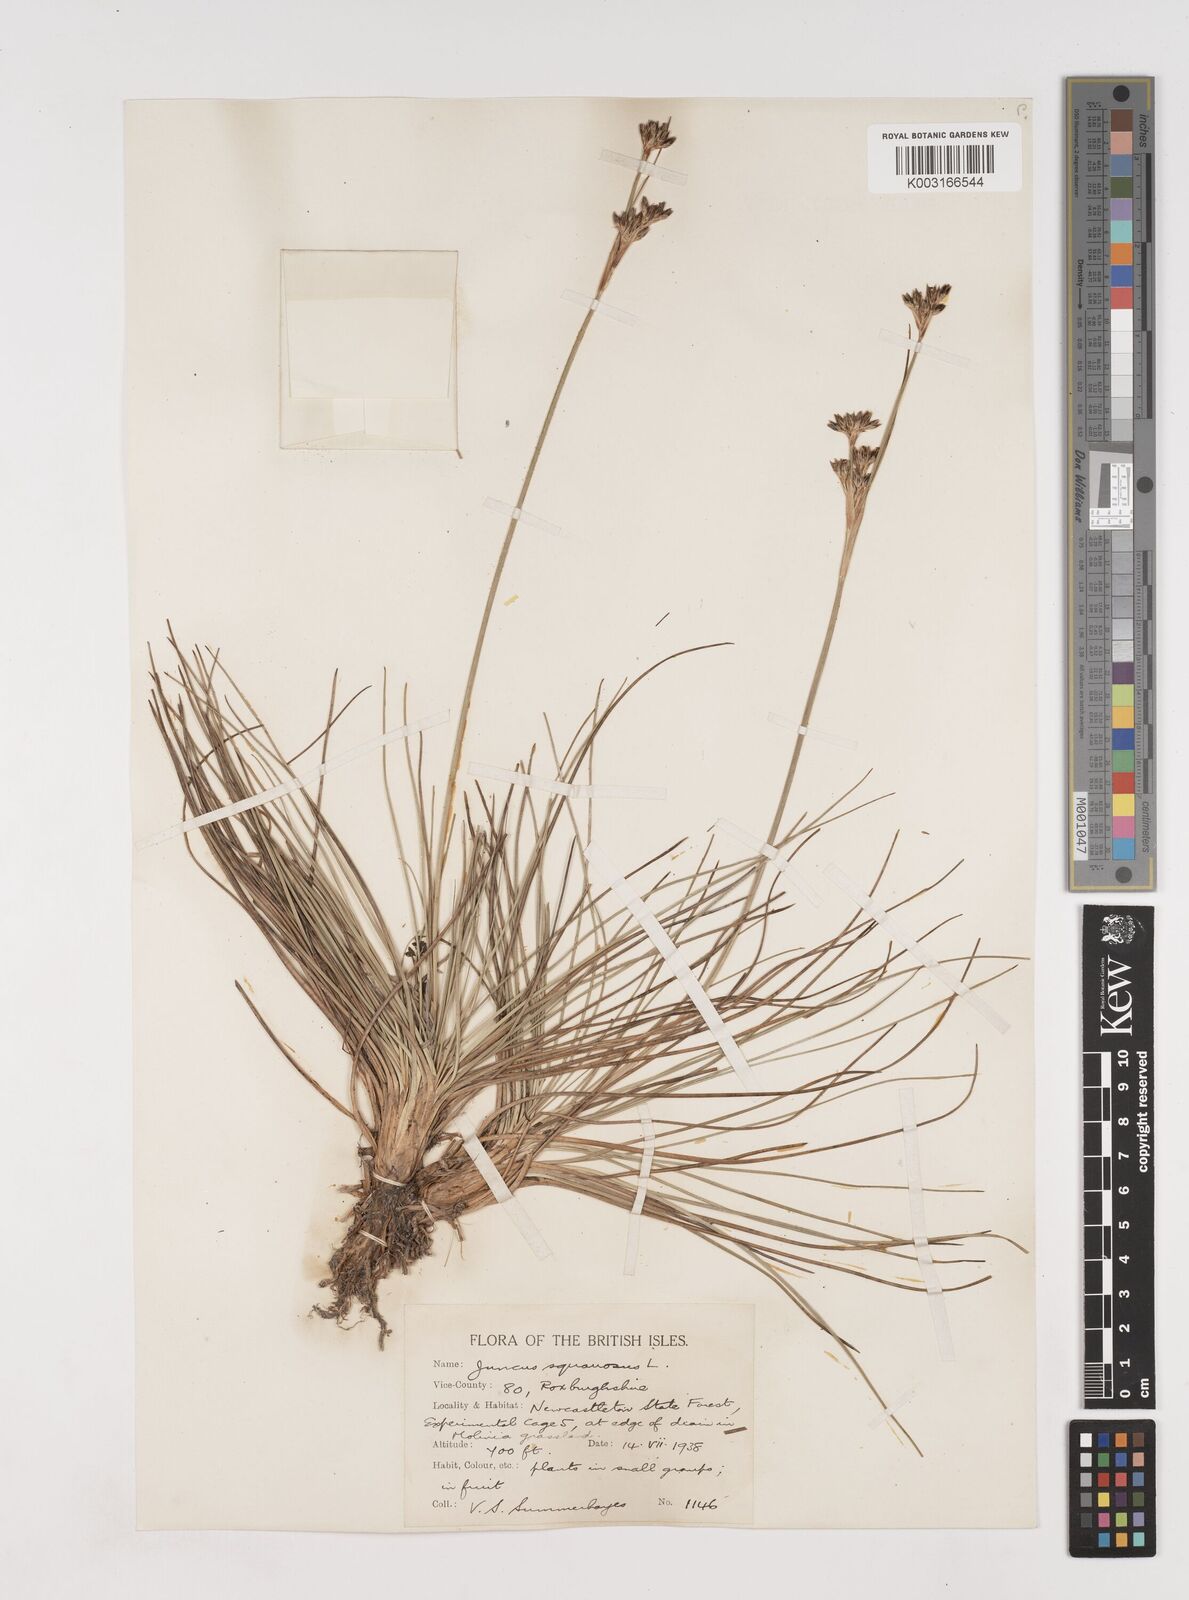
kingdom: Plantae
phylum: Tracheophyta
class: Liliopsida
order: Poales
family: Juncaceae
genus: Juncus
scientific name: Juncus squarrosus
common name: Heath rush
